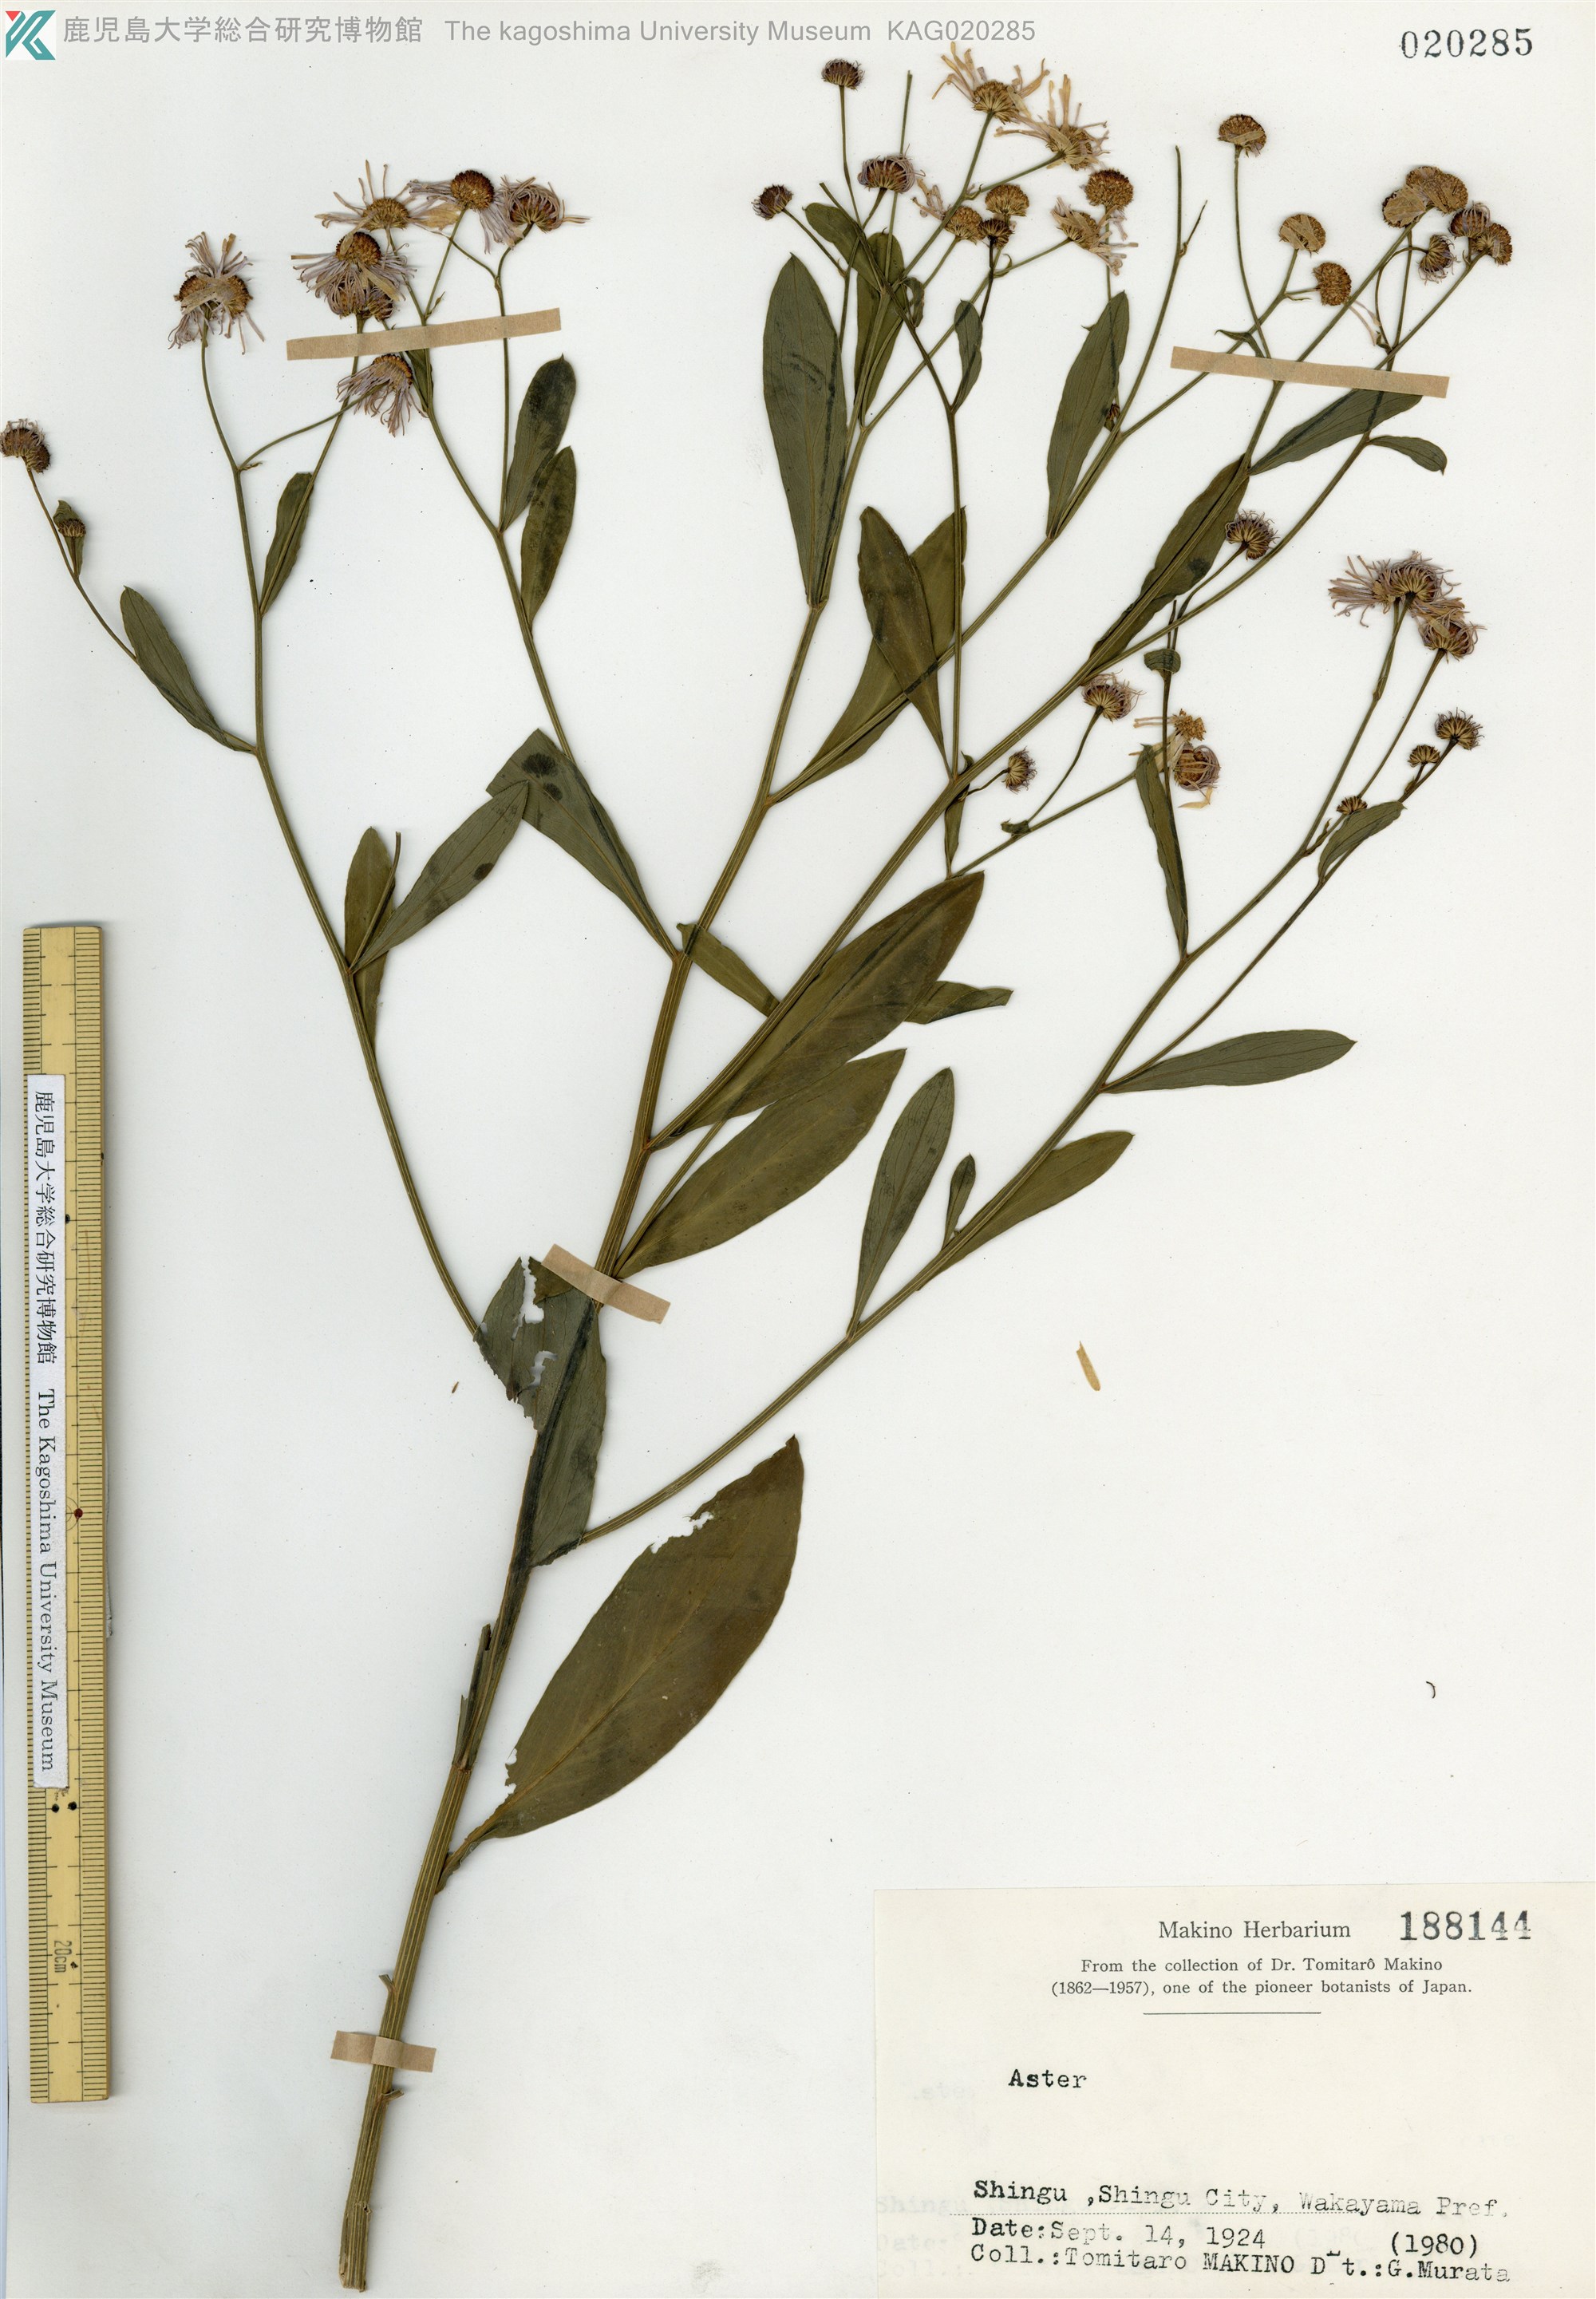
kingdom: Plantae
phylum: Tracheophyta
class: Magnoliopsida
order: Asterales
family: Asteraceae
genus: Aster
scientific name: Aster
